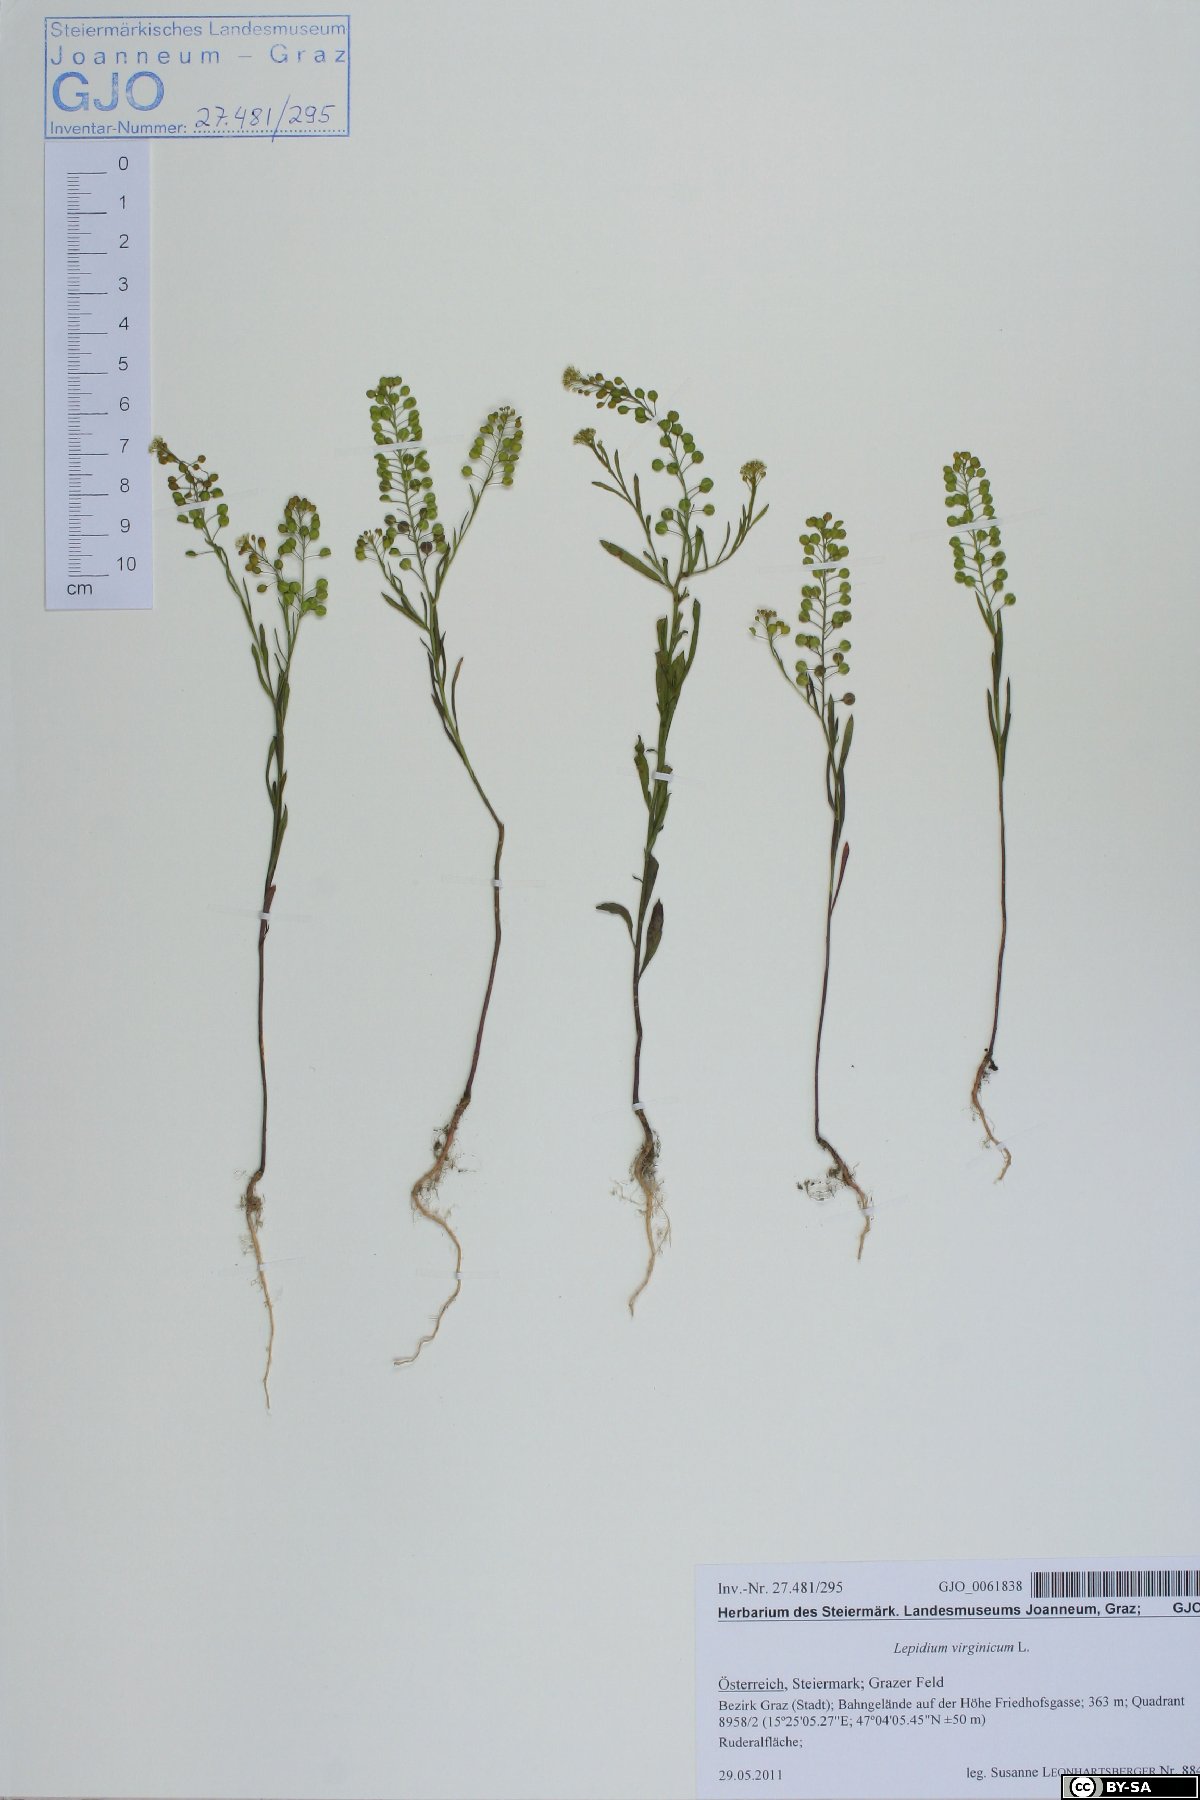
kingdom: Plantae
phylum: Tracheophyta
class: Magnoliopsida
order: Brassicales
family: Brassicaceae
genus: Lepidium
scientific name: Lepidium virginicum
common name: Least pepperwort
